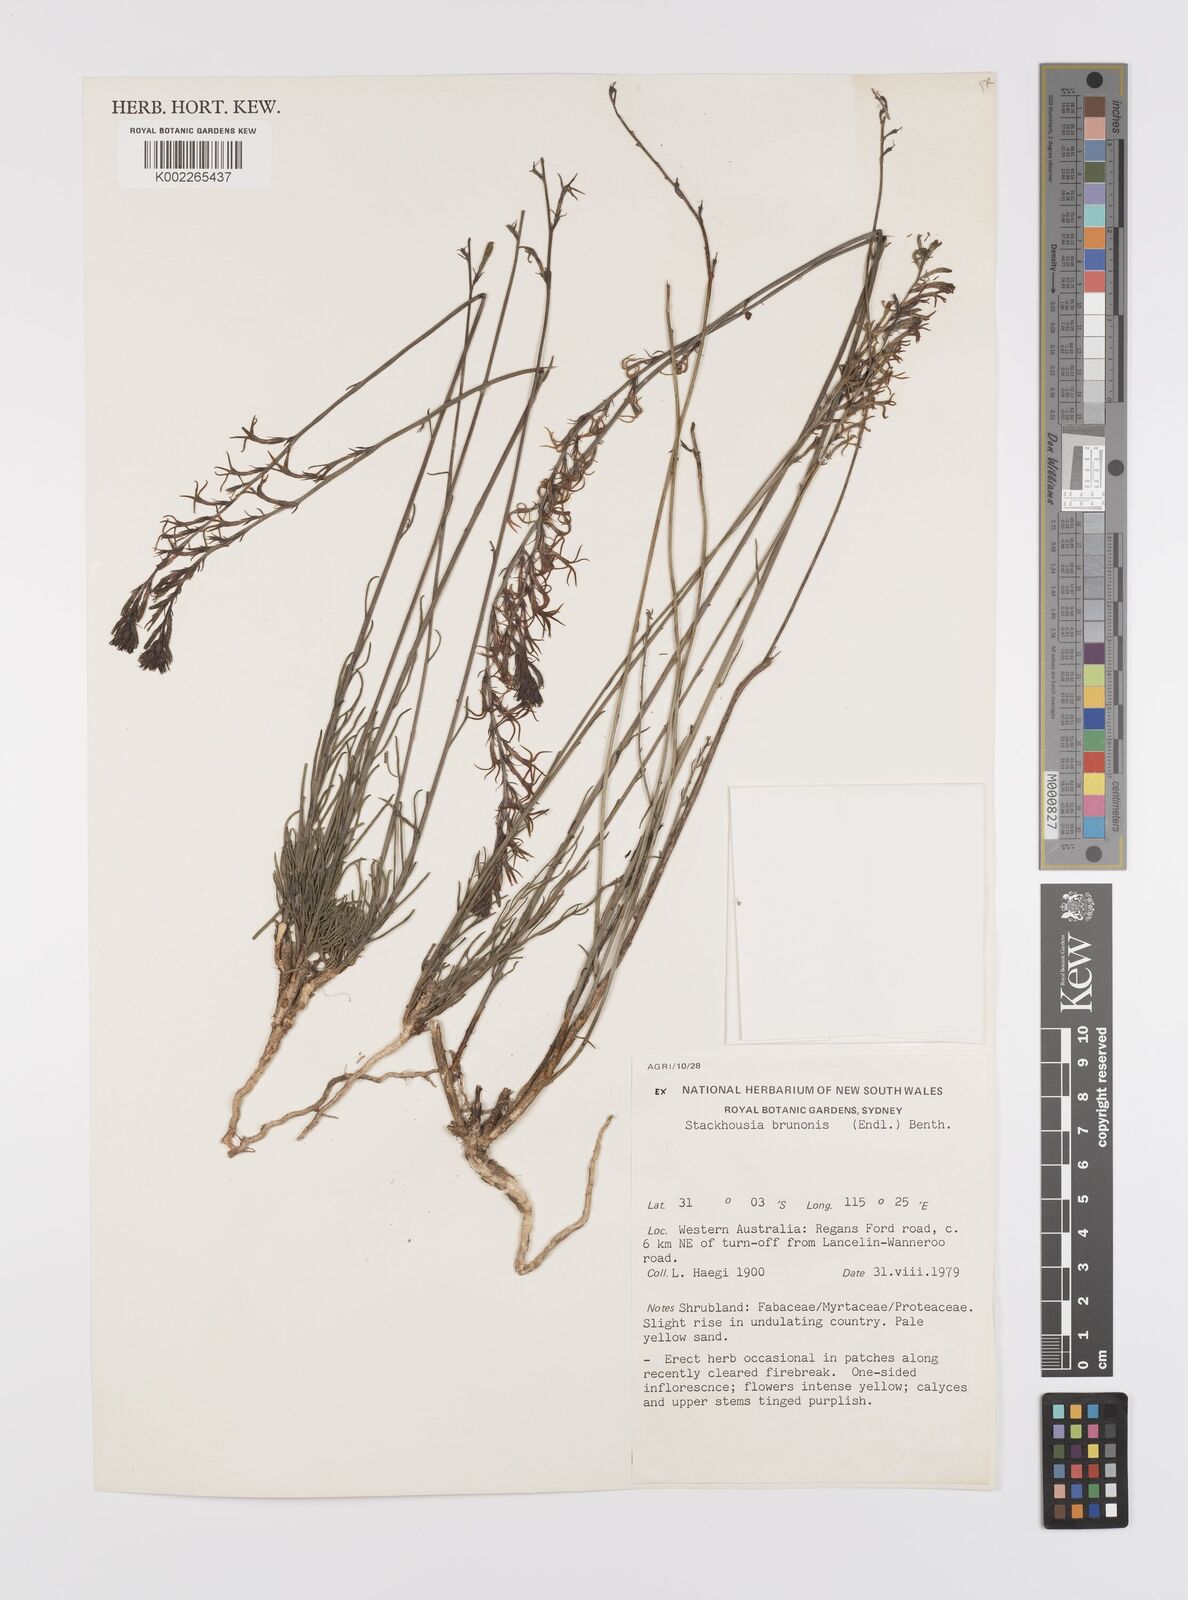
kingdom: Plantae
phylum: Tracheophyta
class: Magnoliopsida
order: Celastrales
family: Celastraceae
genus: Tripterococcus
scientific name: Tripterococcus brunonis
